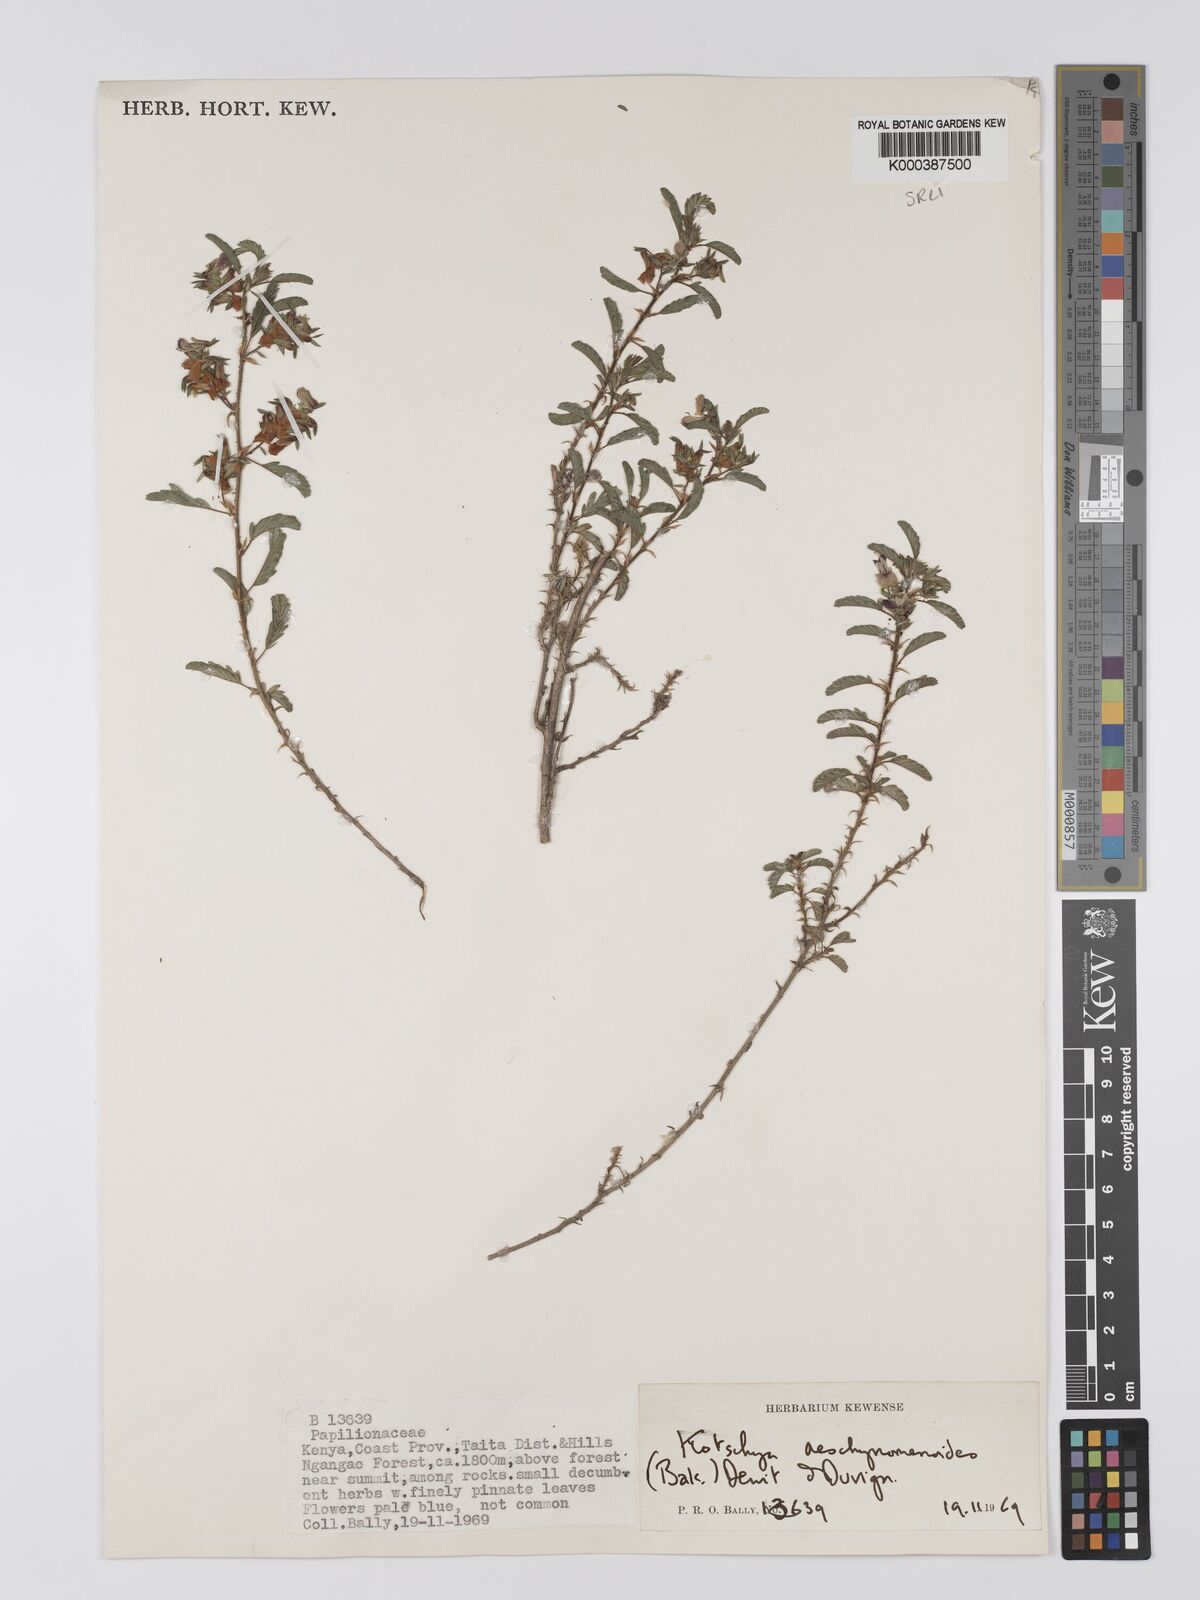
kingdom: Plantae
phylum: Tracheophyta
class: Magnoliopsida
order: Fabales
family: Fabaceae
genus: Kotschya
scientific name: Kotschya aeschynomenoides
